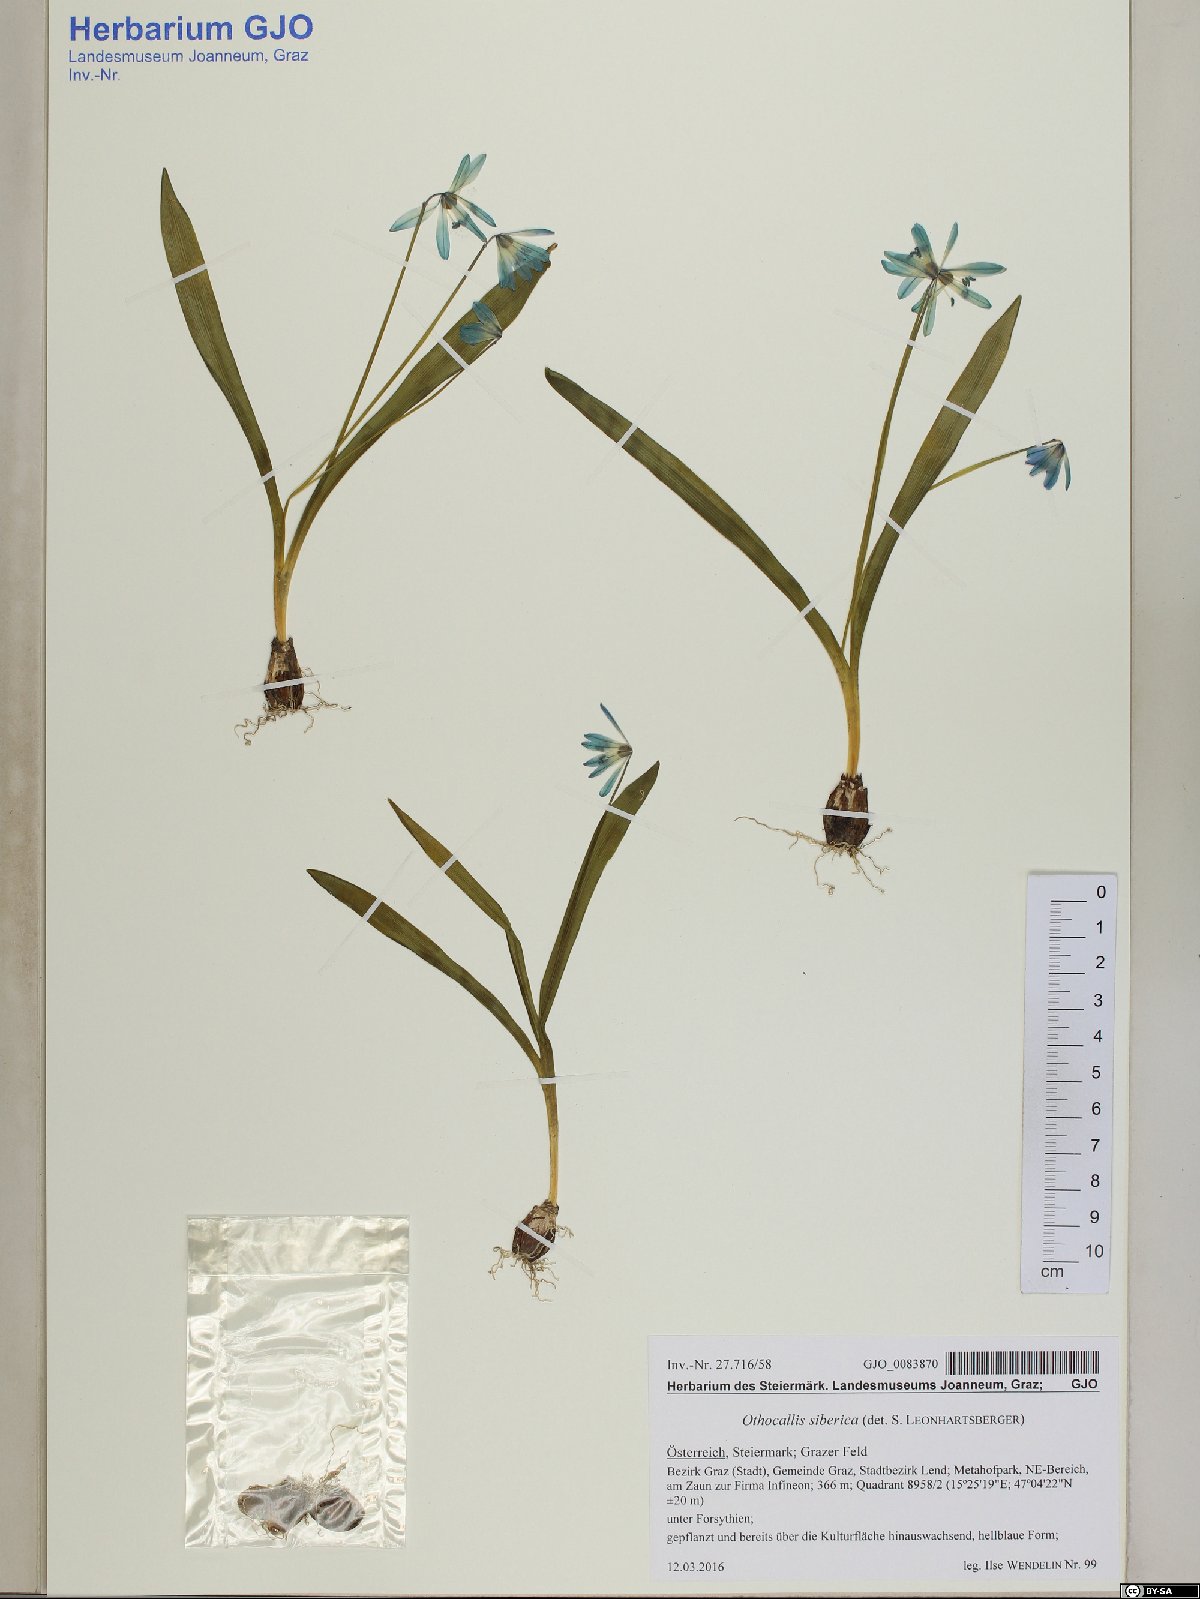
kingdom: Plantae
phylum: Tracheophyta
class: Liliopsida
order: Asparagales
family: Asparagaceae
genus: Scilla
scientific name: Scilla siberica
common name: Siberian squill
